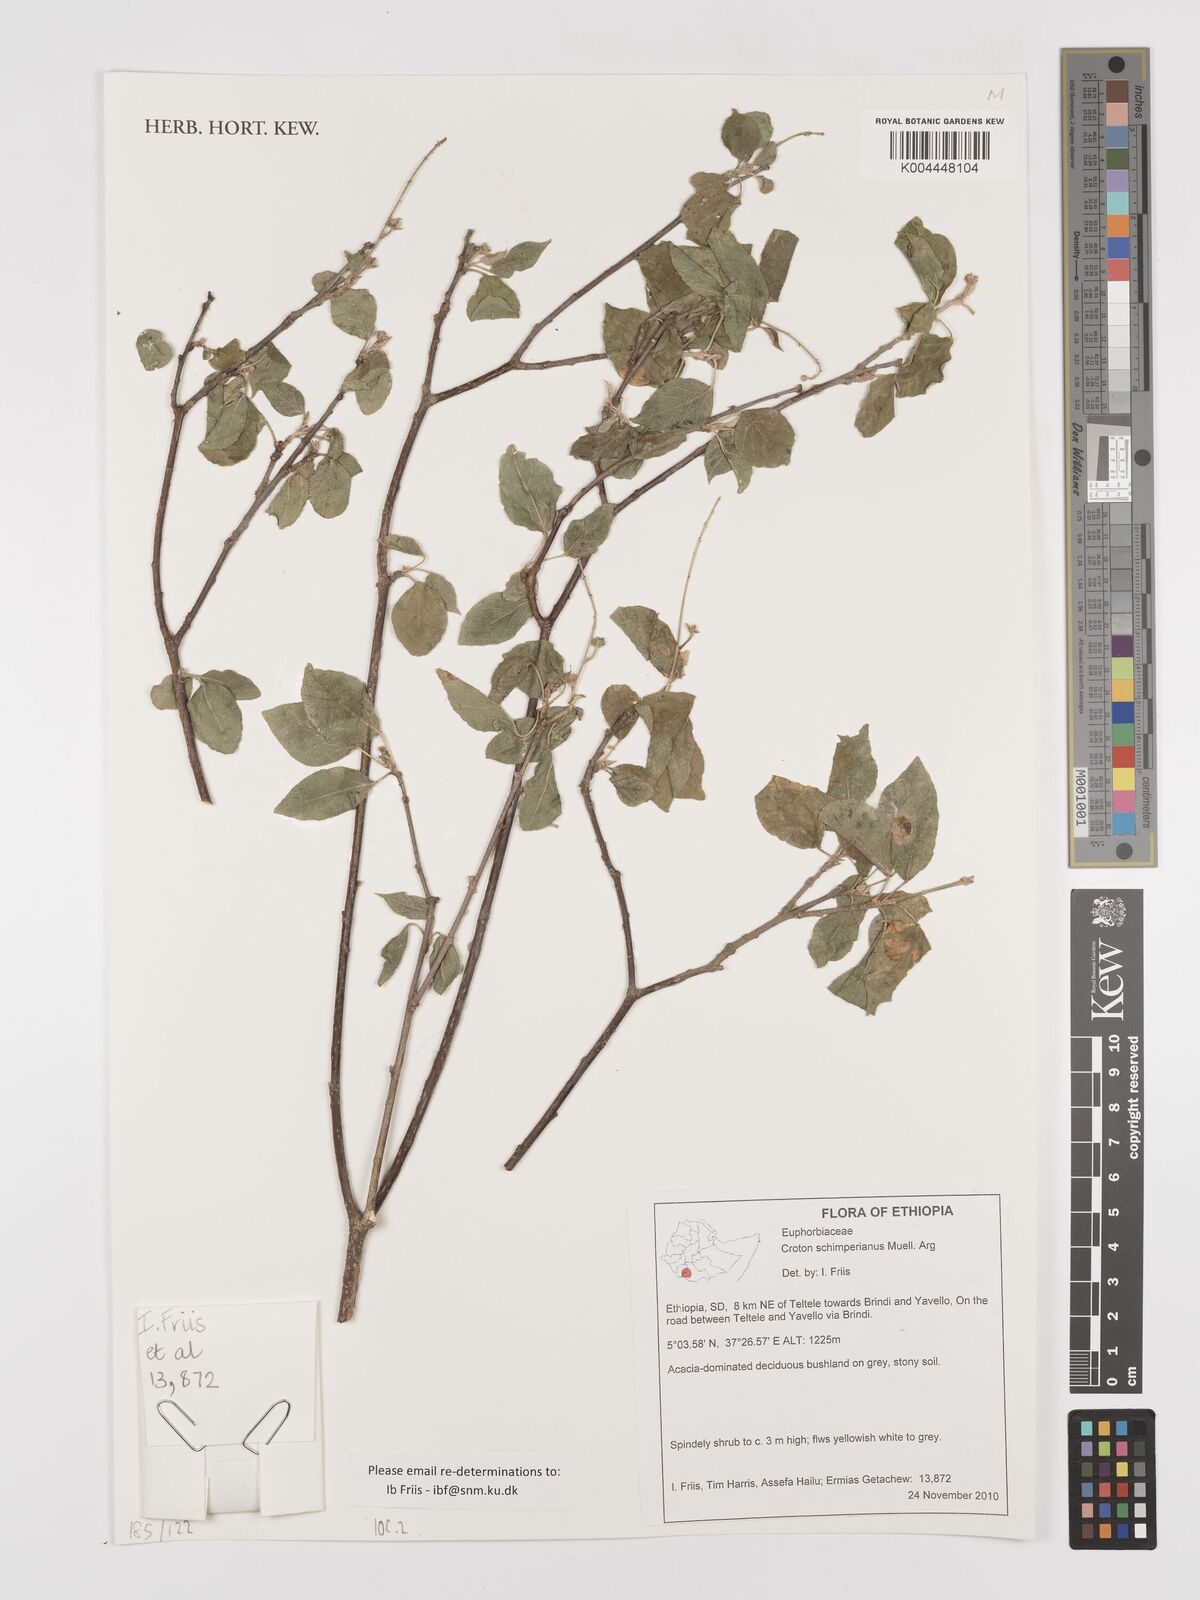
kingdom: Plantae
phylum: Tracheophyta
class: Magnoliopsida
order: Malpighiales
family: Euphorbiaceae
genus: Croton
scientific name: Croton schimperianus
